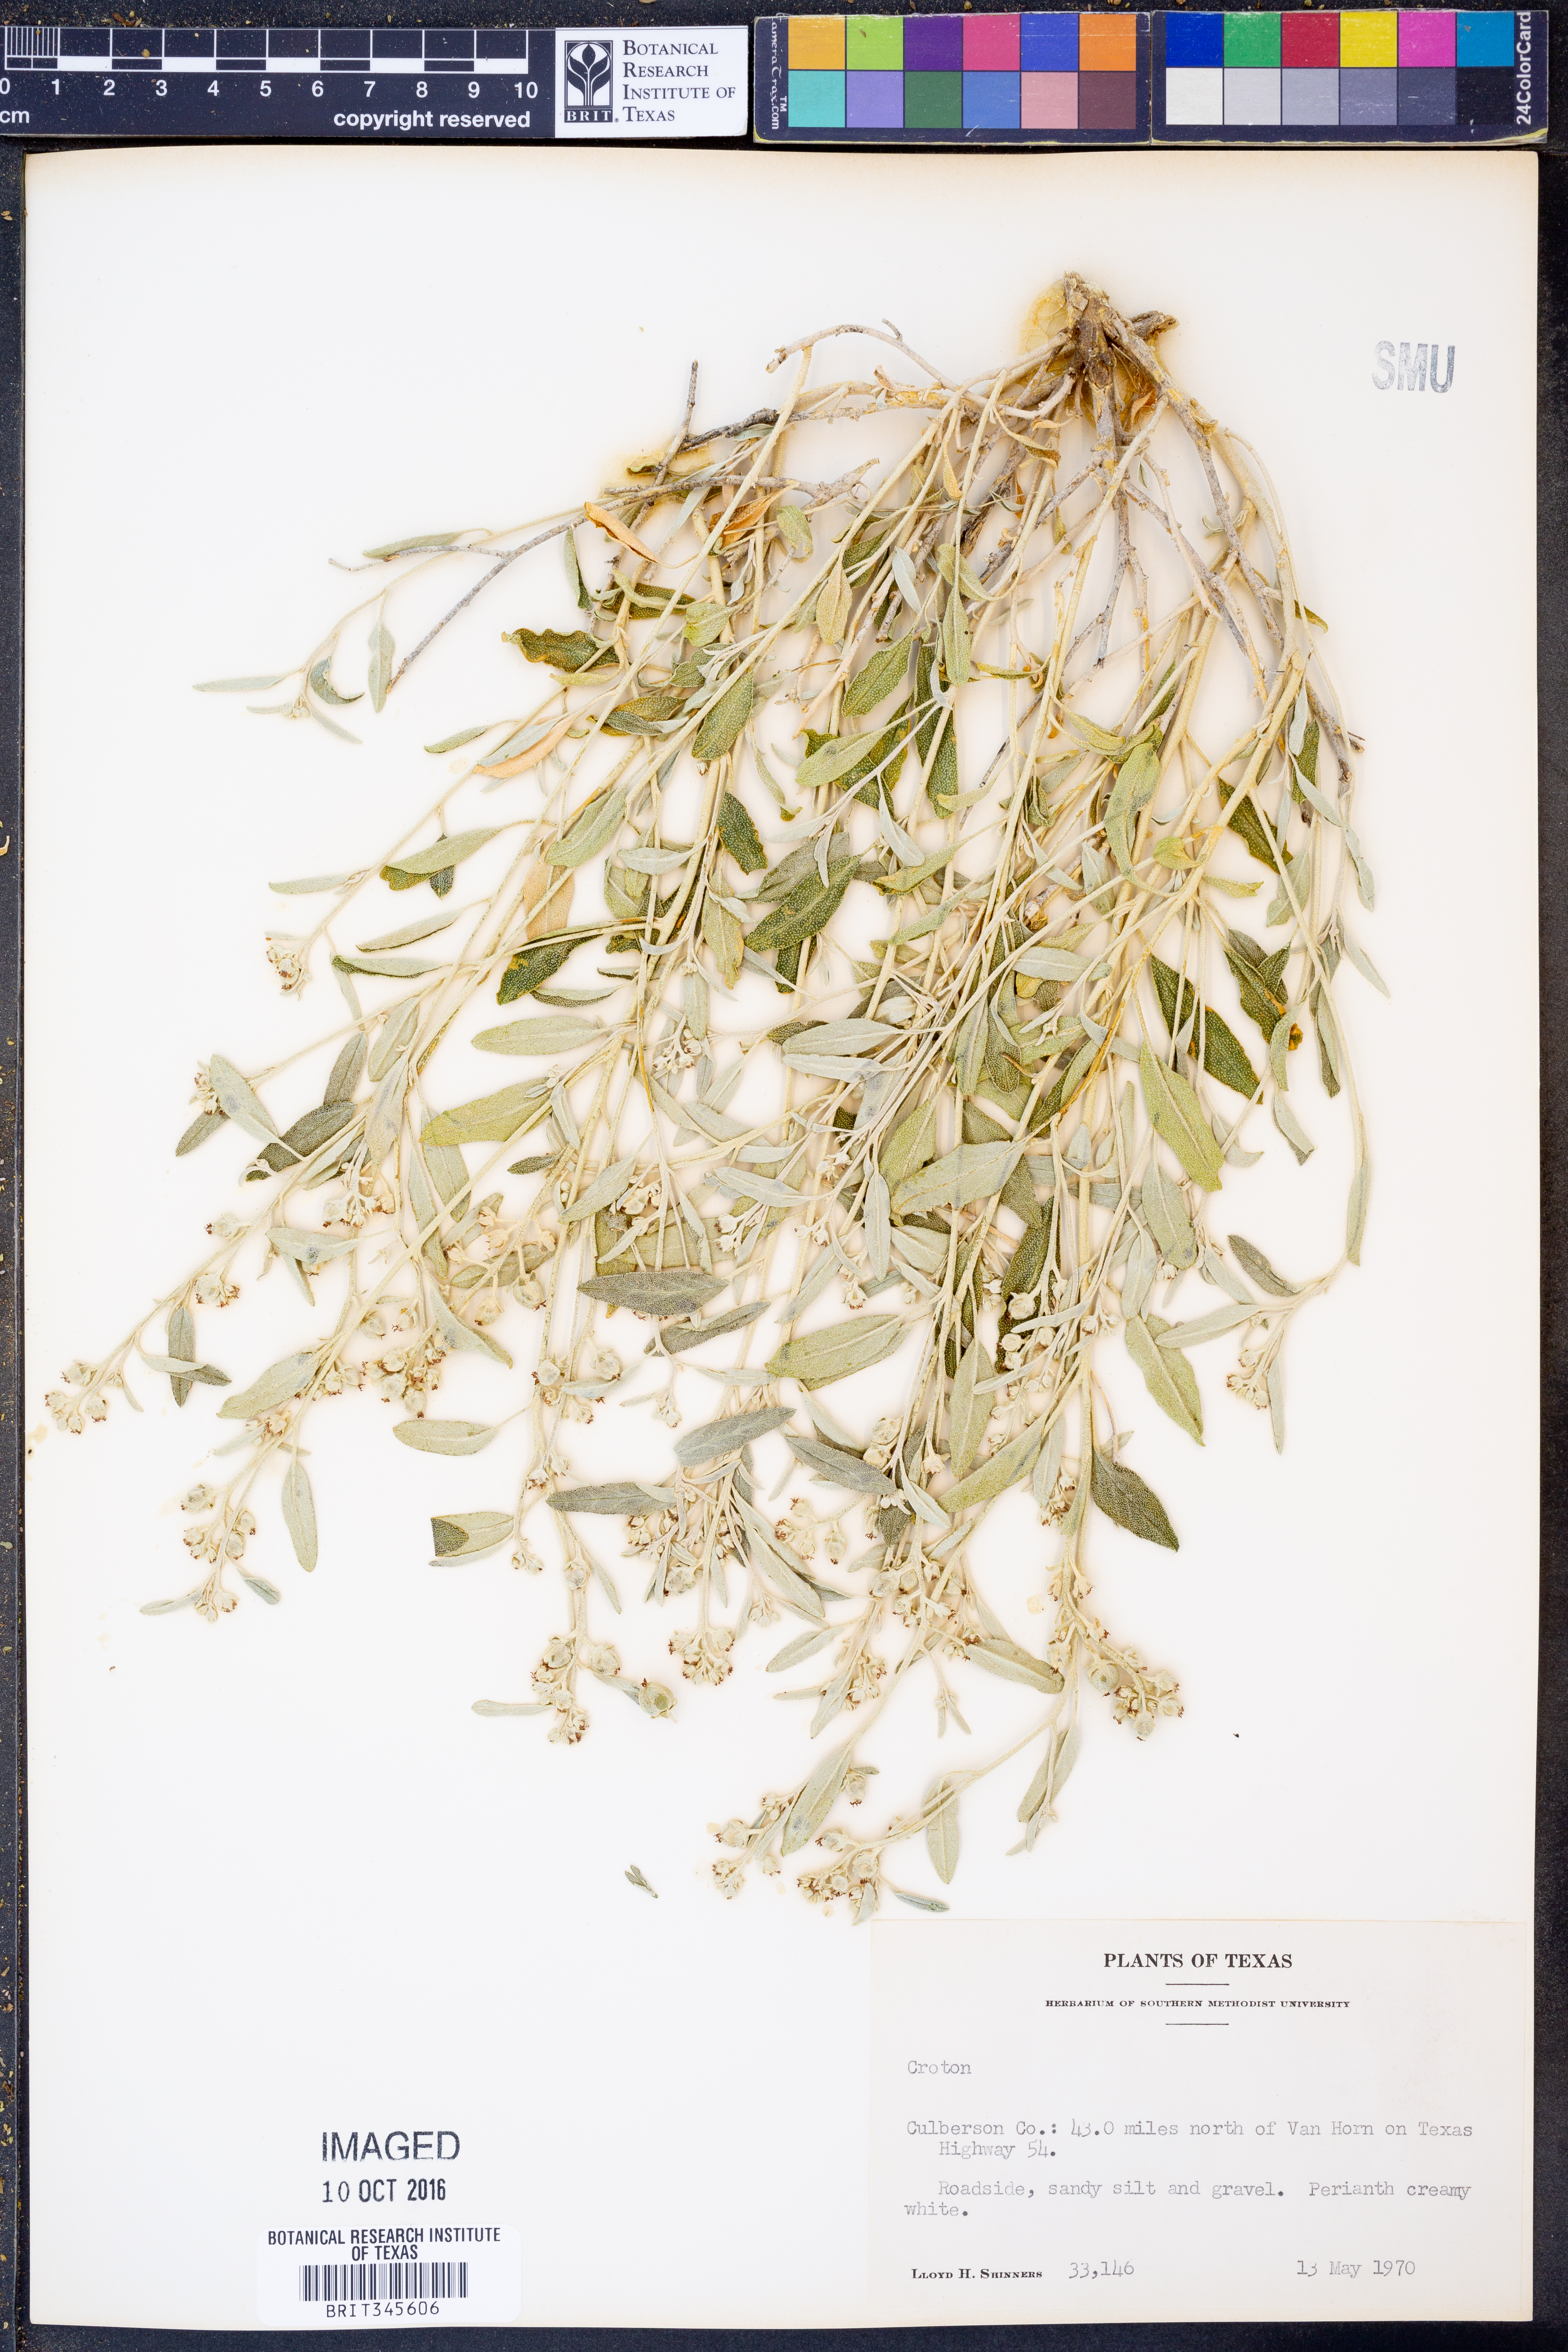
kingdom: Plantae
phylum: Tracheophyta
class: Magnoliopsida
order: Malpighiales
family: Euphorbiaceae
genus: Croton
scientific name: Croton
